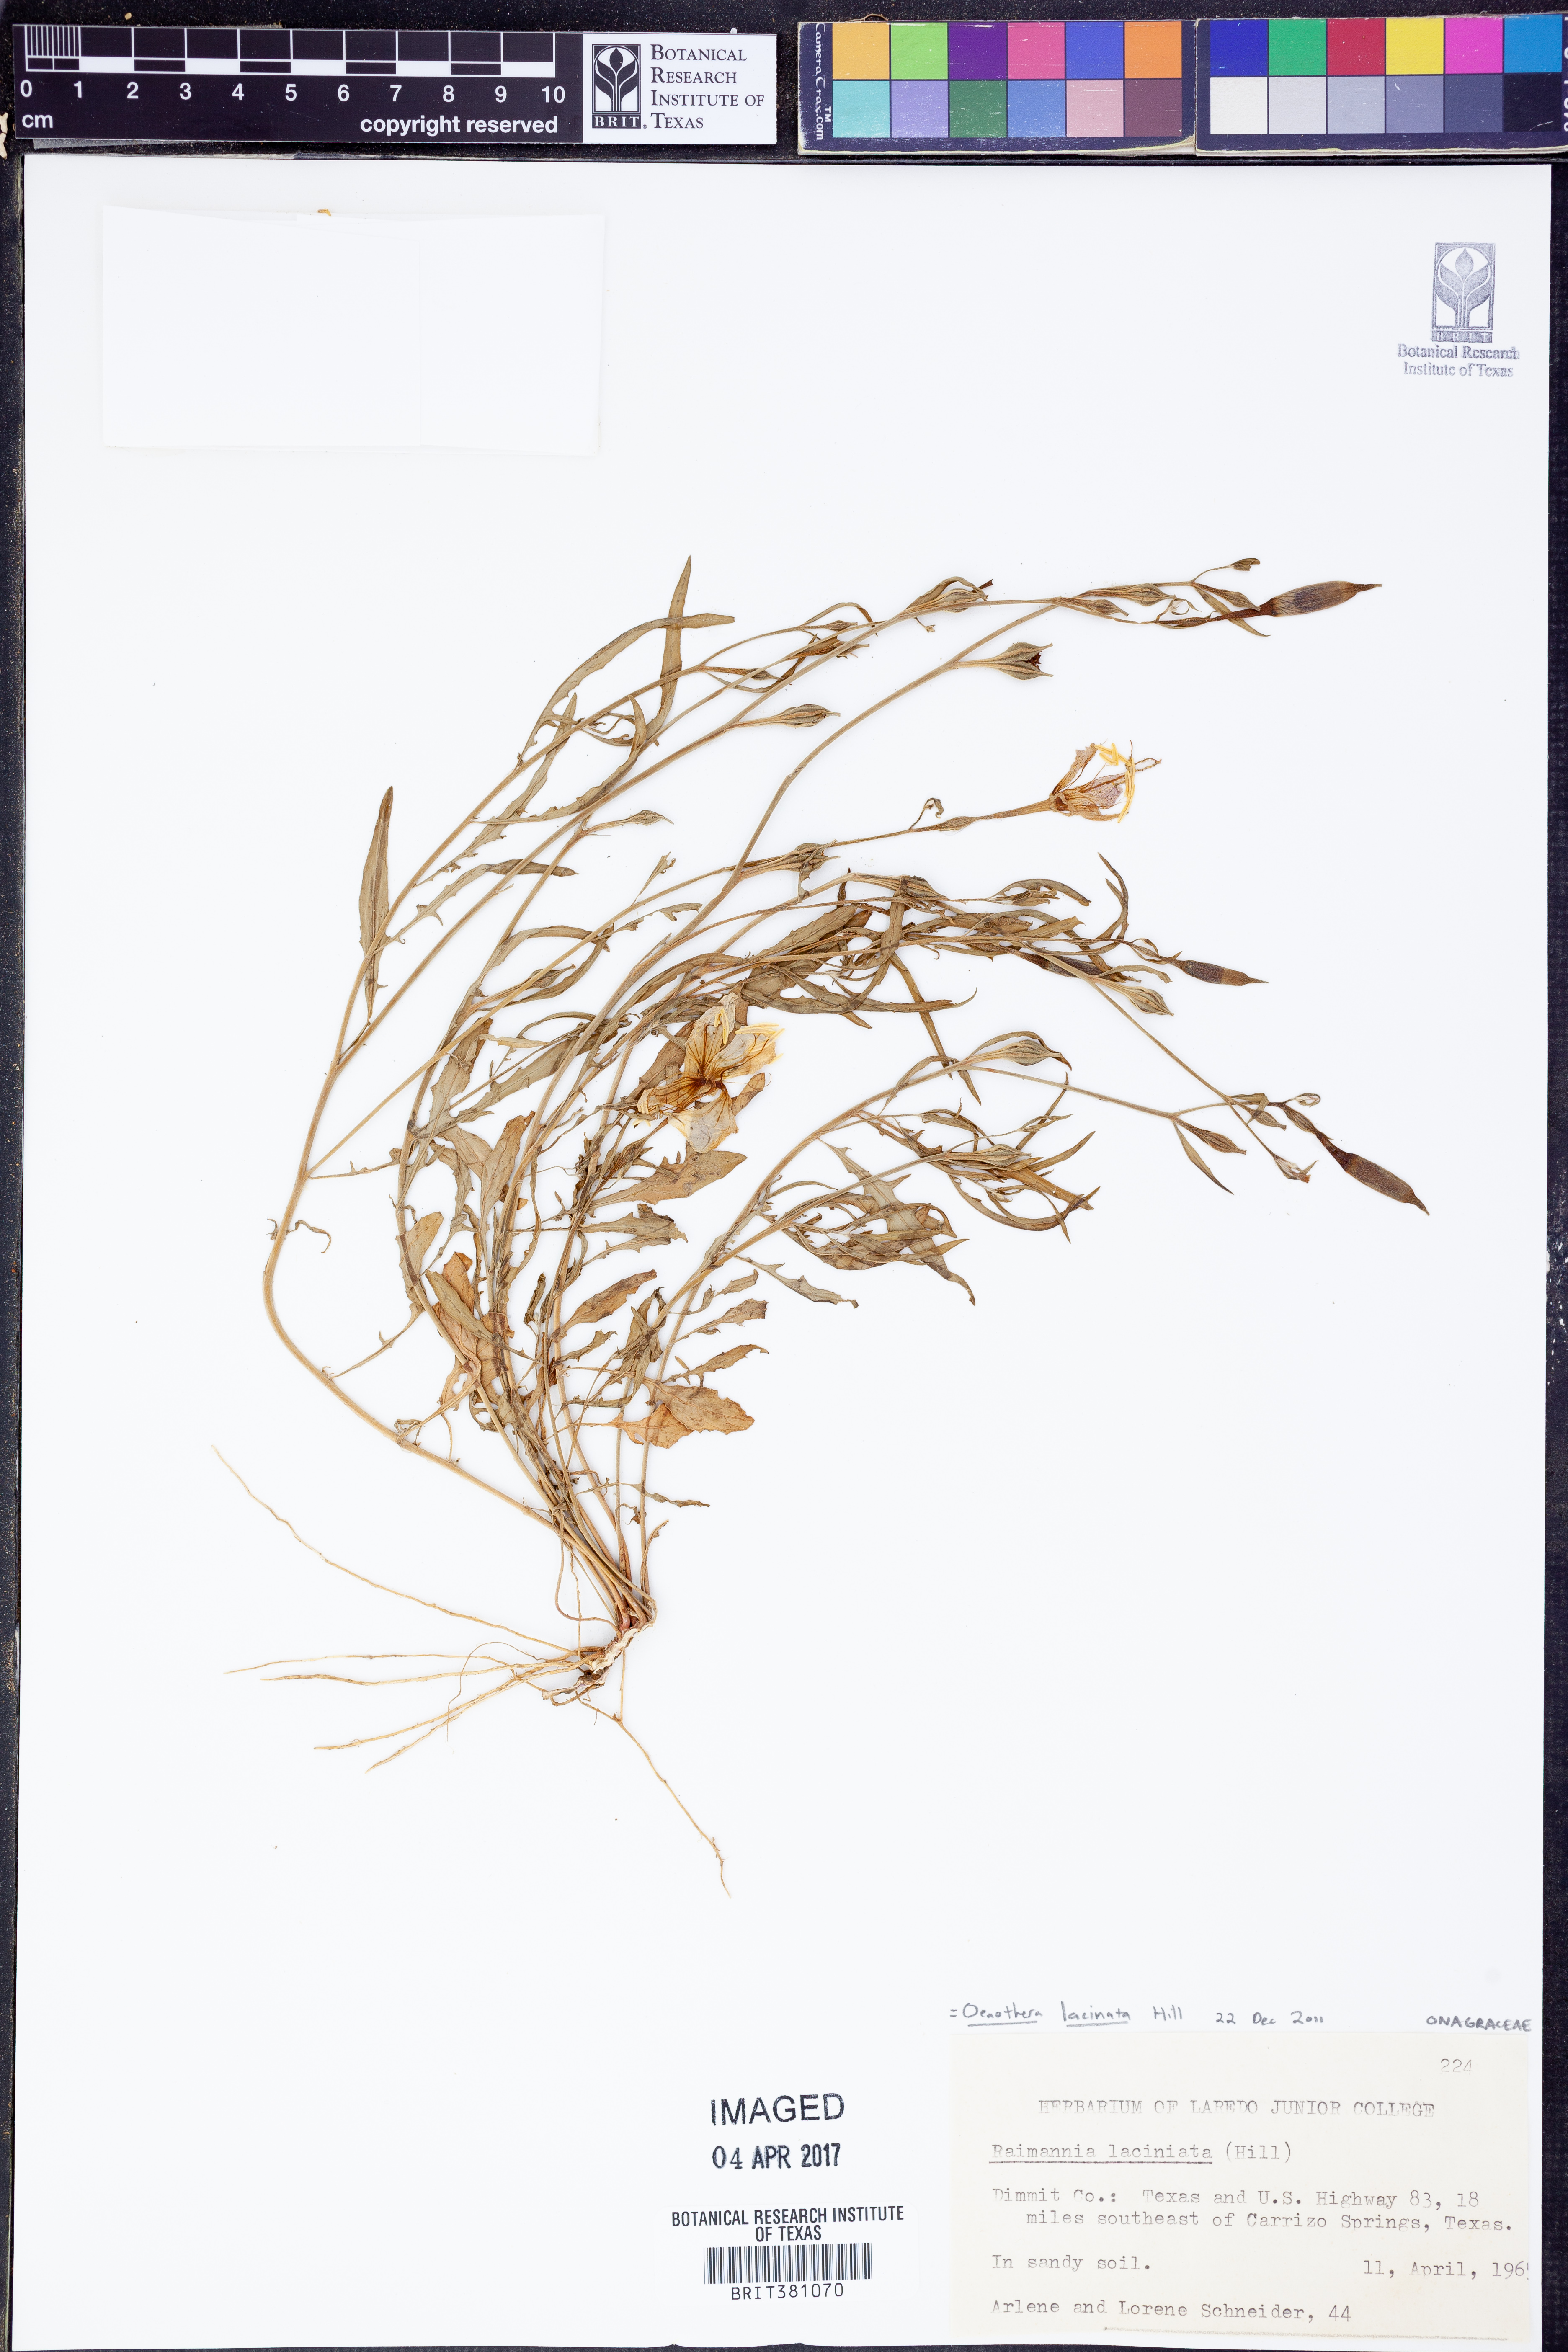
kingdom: Plantae
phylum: Tracheophyta
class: Magnoliopsida
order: Myrtales
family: Onagraceae
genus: Oenothera
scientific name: Oenothera laciniata
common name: Cut-leaved evening-primrose
